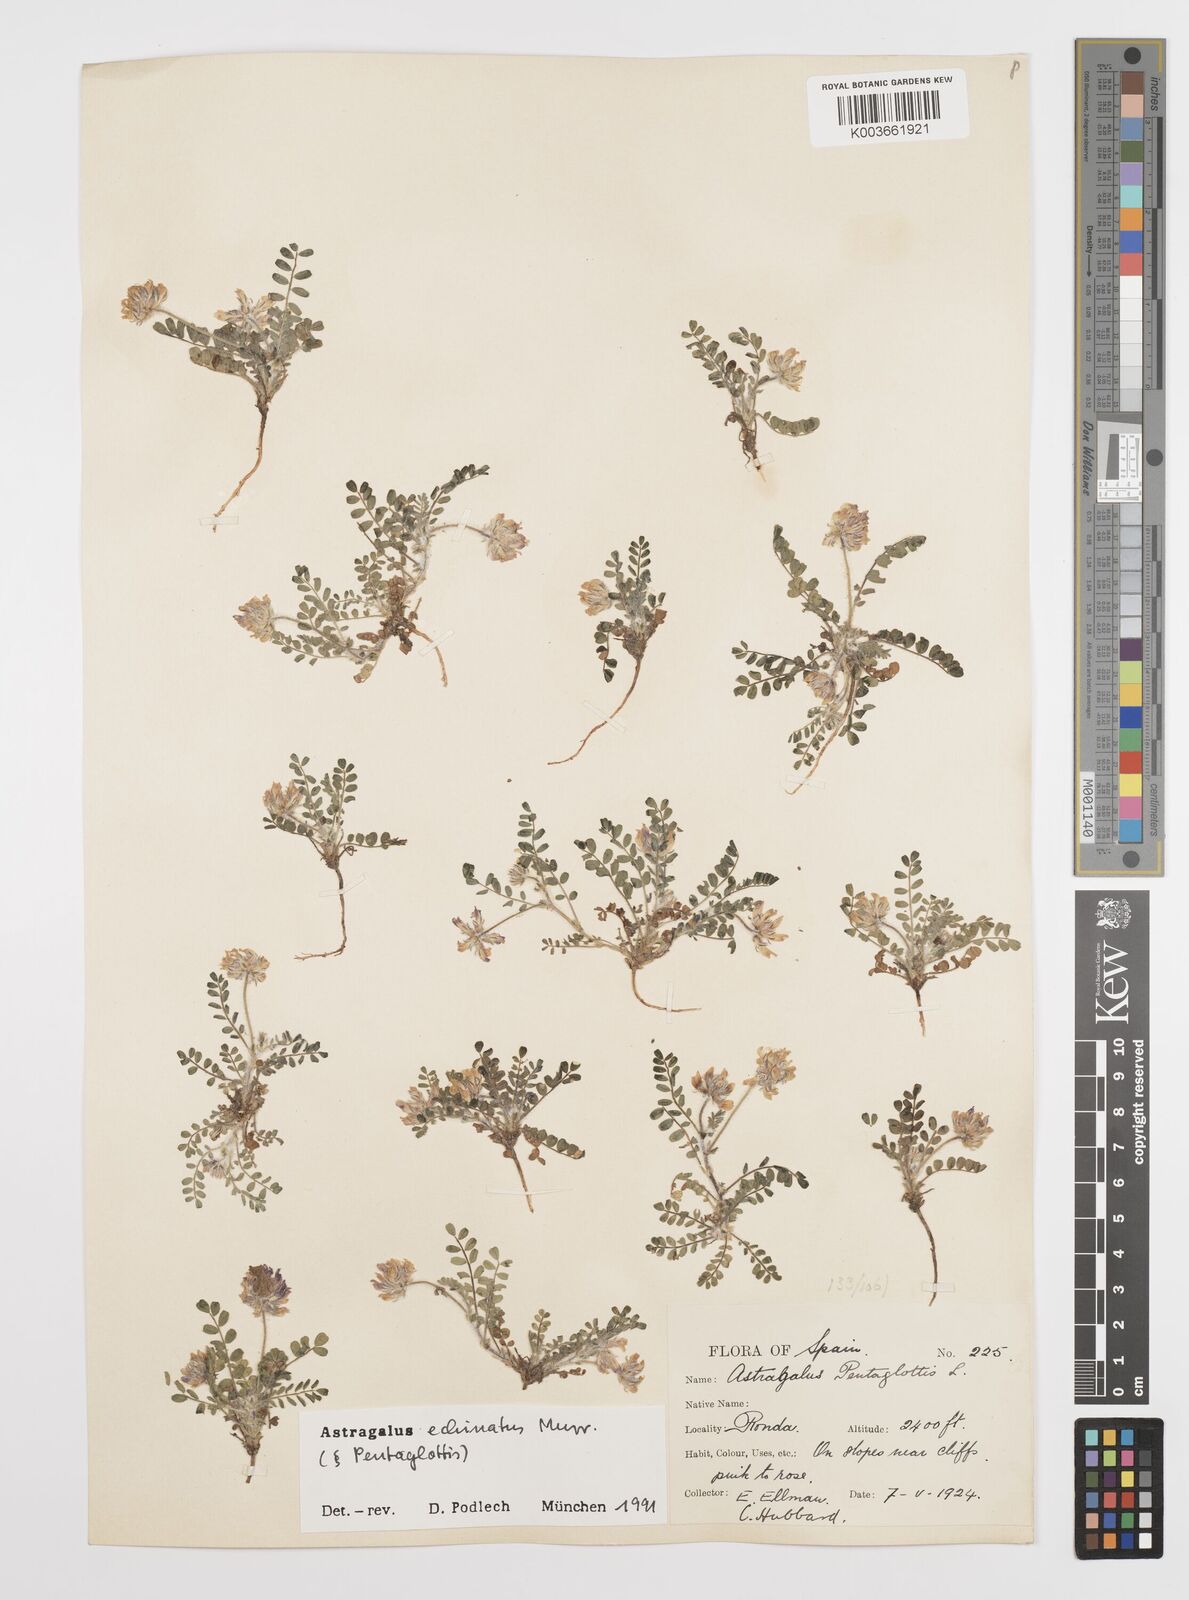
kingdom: Plantae
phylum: Tracheophyta
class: Magnoliopsida
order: Fabales
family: Fabaceae
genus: Astragalus
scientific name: Astragalus echinatus
